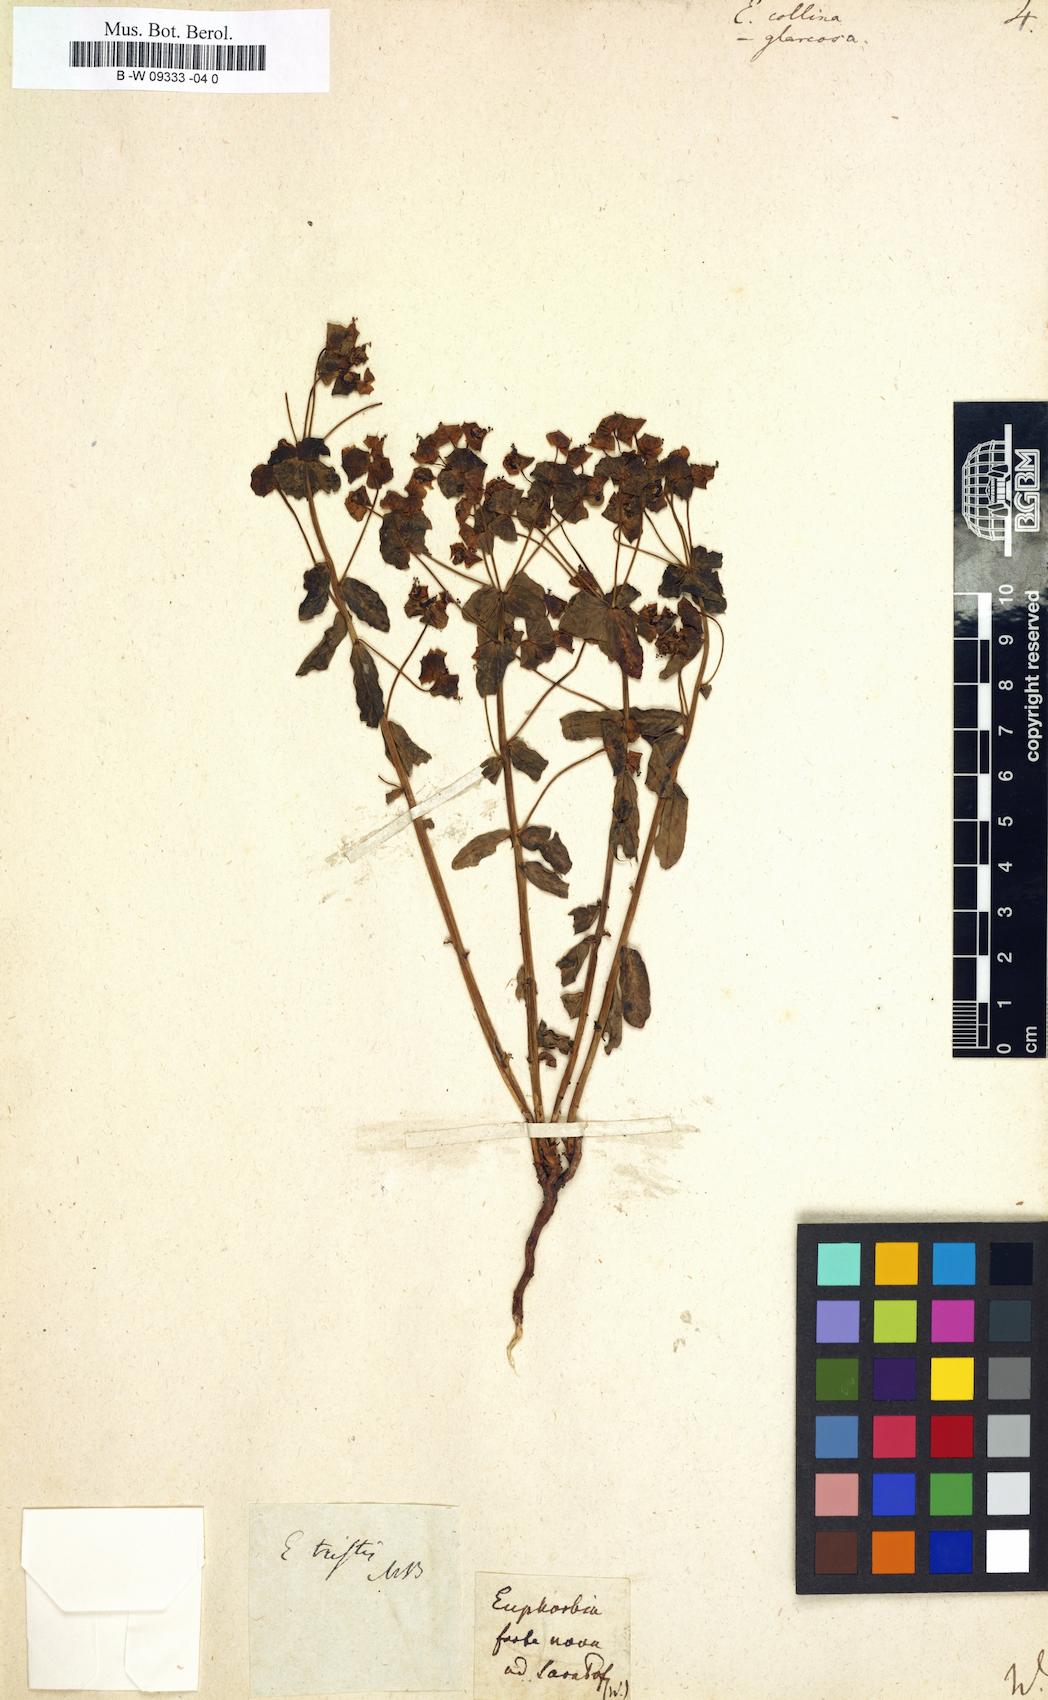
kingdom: Plantae
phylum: Tracheophyta
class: Magnoliopsida
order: Malpighiales
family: Euphorbiaceae
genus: Euphorbia
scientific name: Euphorbia collina
